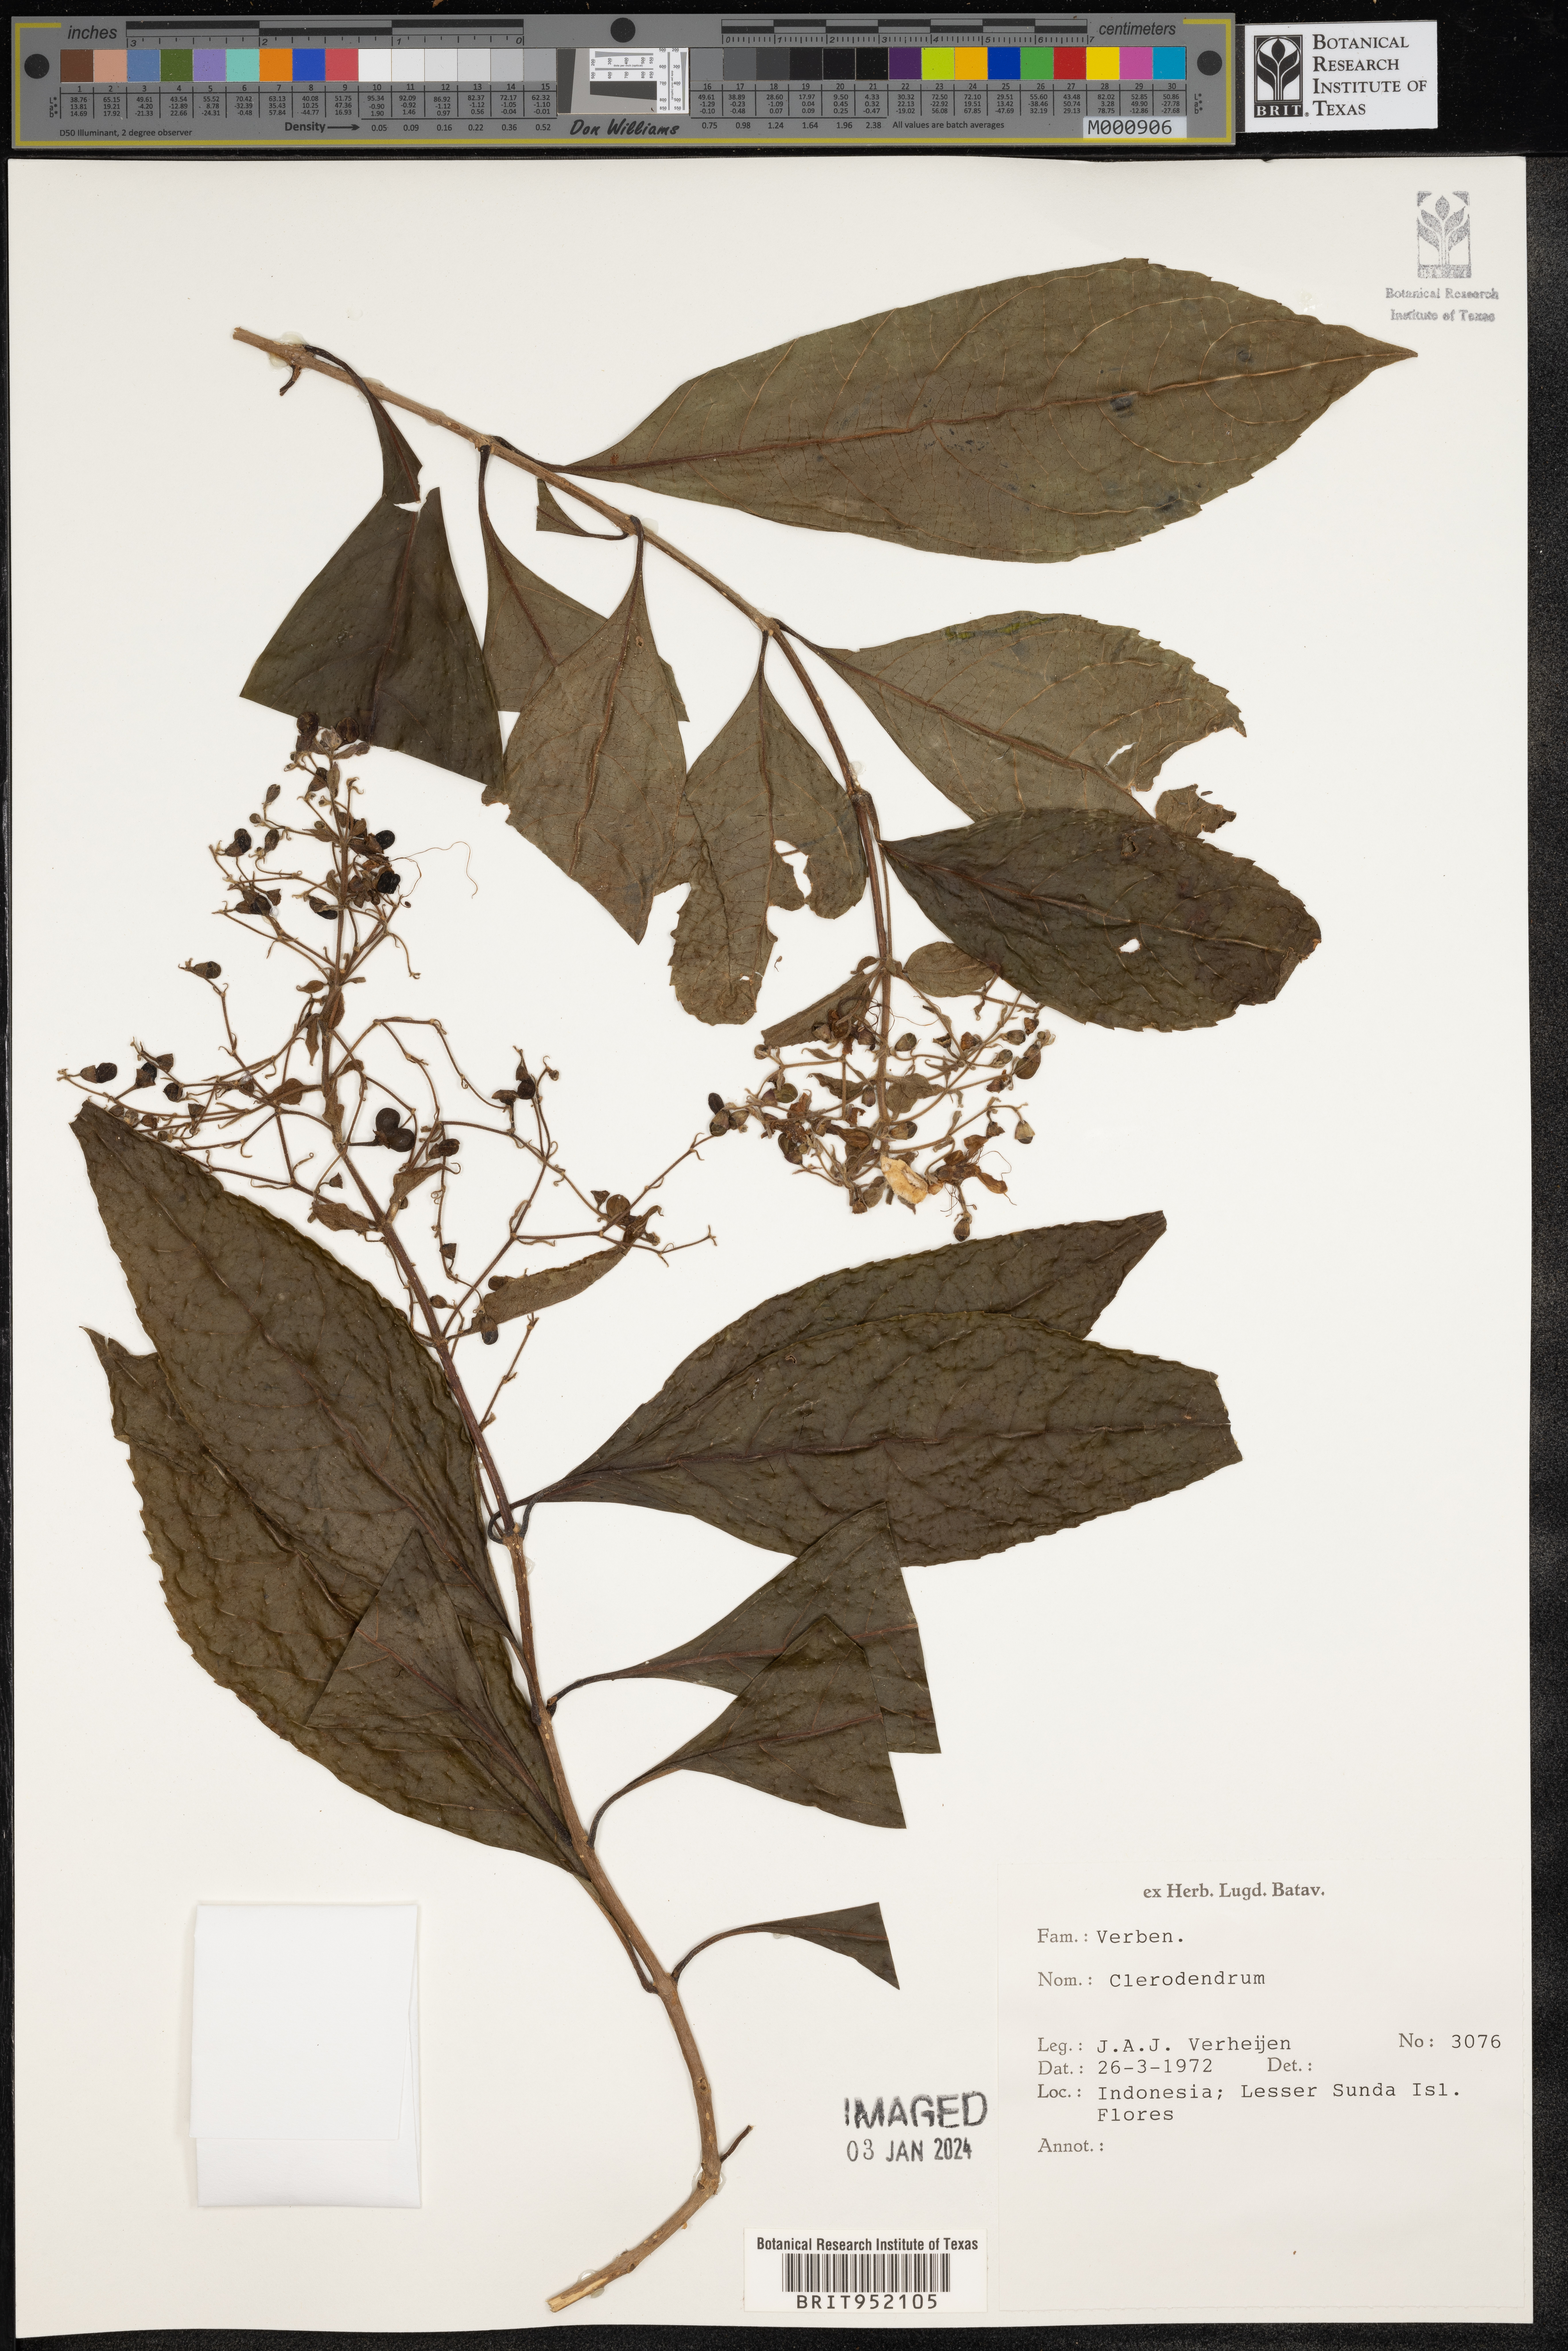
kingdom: Plantae
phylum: Tracheophyta
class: Magnoliopsida
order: Lamiales
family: Lamiaceae
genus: Clerodendrum
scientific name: Clerodendrum
